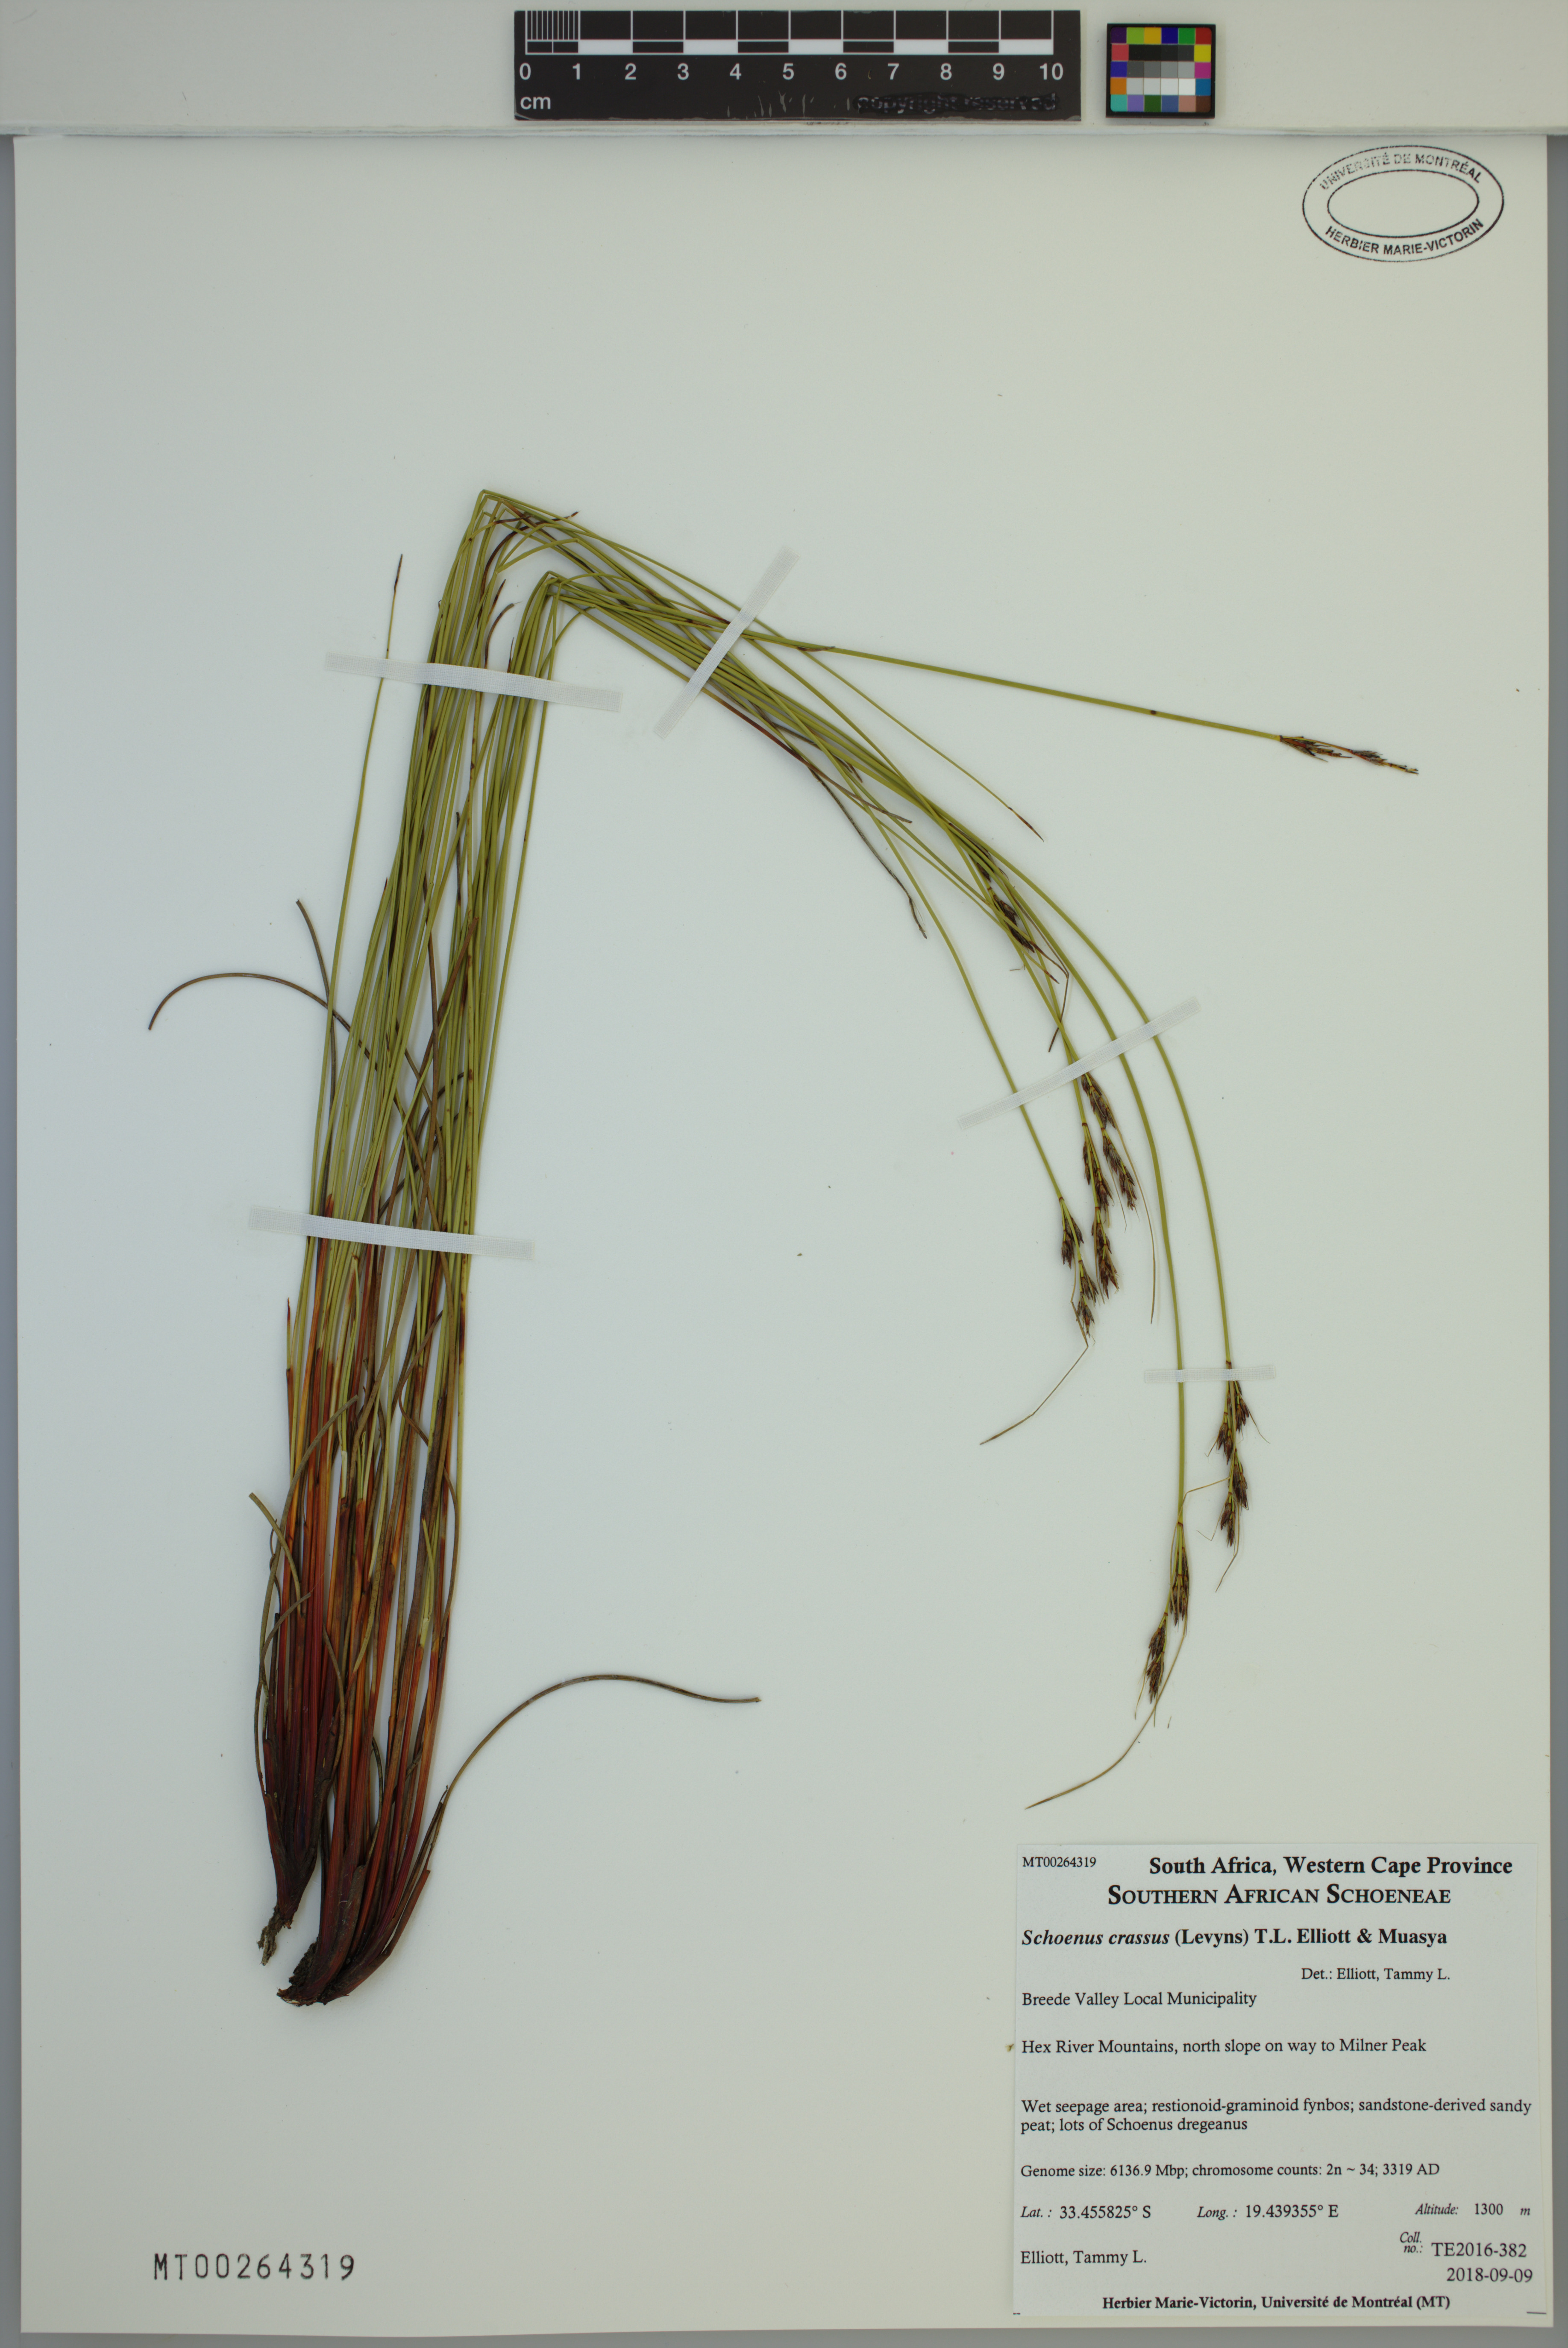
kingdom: Plantae
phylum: Tracheophyta
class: Liliopsida
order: Poales
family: Cyperaceae
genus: Schoenus
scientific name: Schoenus crassus
